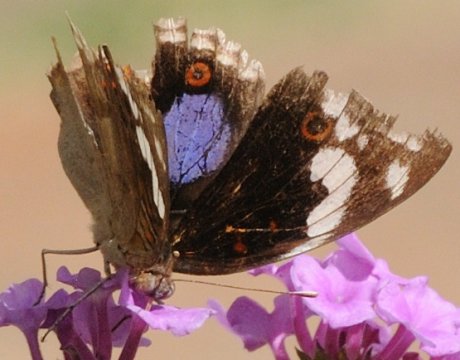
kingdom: Animalia
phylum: Arthropoda
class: Insecta
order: Lepidoptera
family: Nymphalidae
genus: Junonia
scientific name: Junonia oenone
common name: Dark blue pansy
